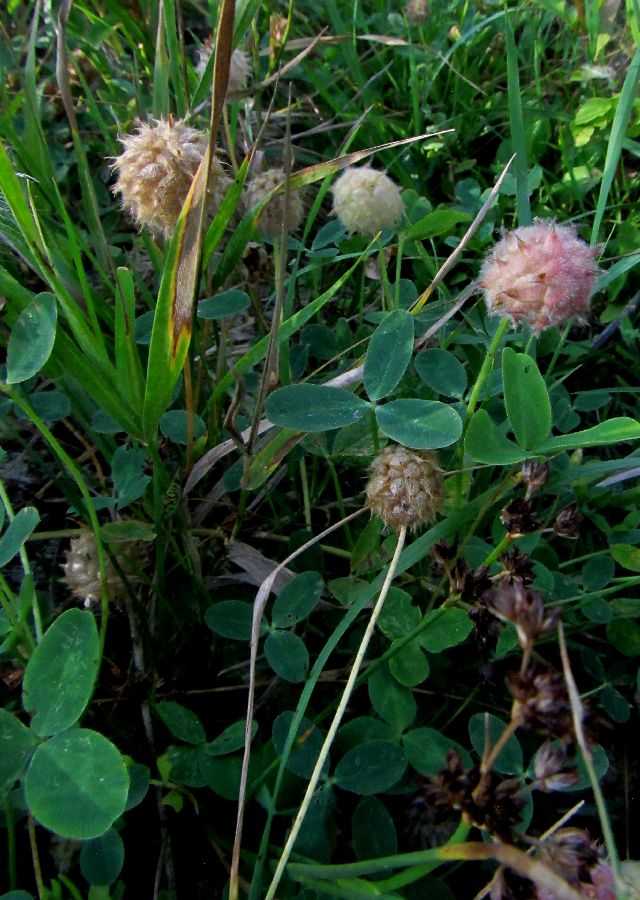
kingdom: Plantae
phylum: Tracheophyta
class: Magnoliopsida
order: Fabales
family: Fabaceae
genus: Trifolium
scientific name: Trifolium fragiferum
